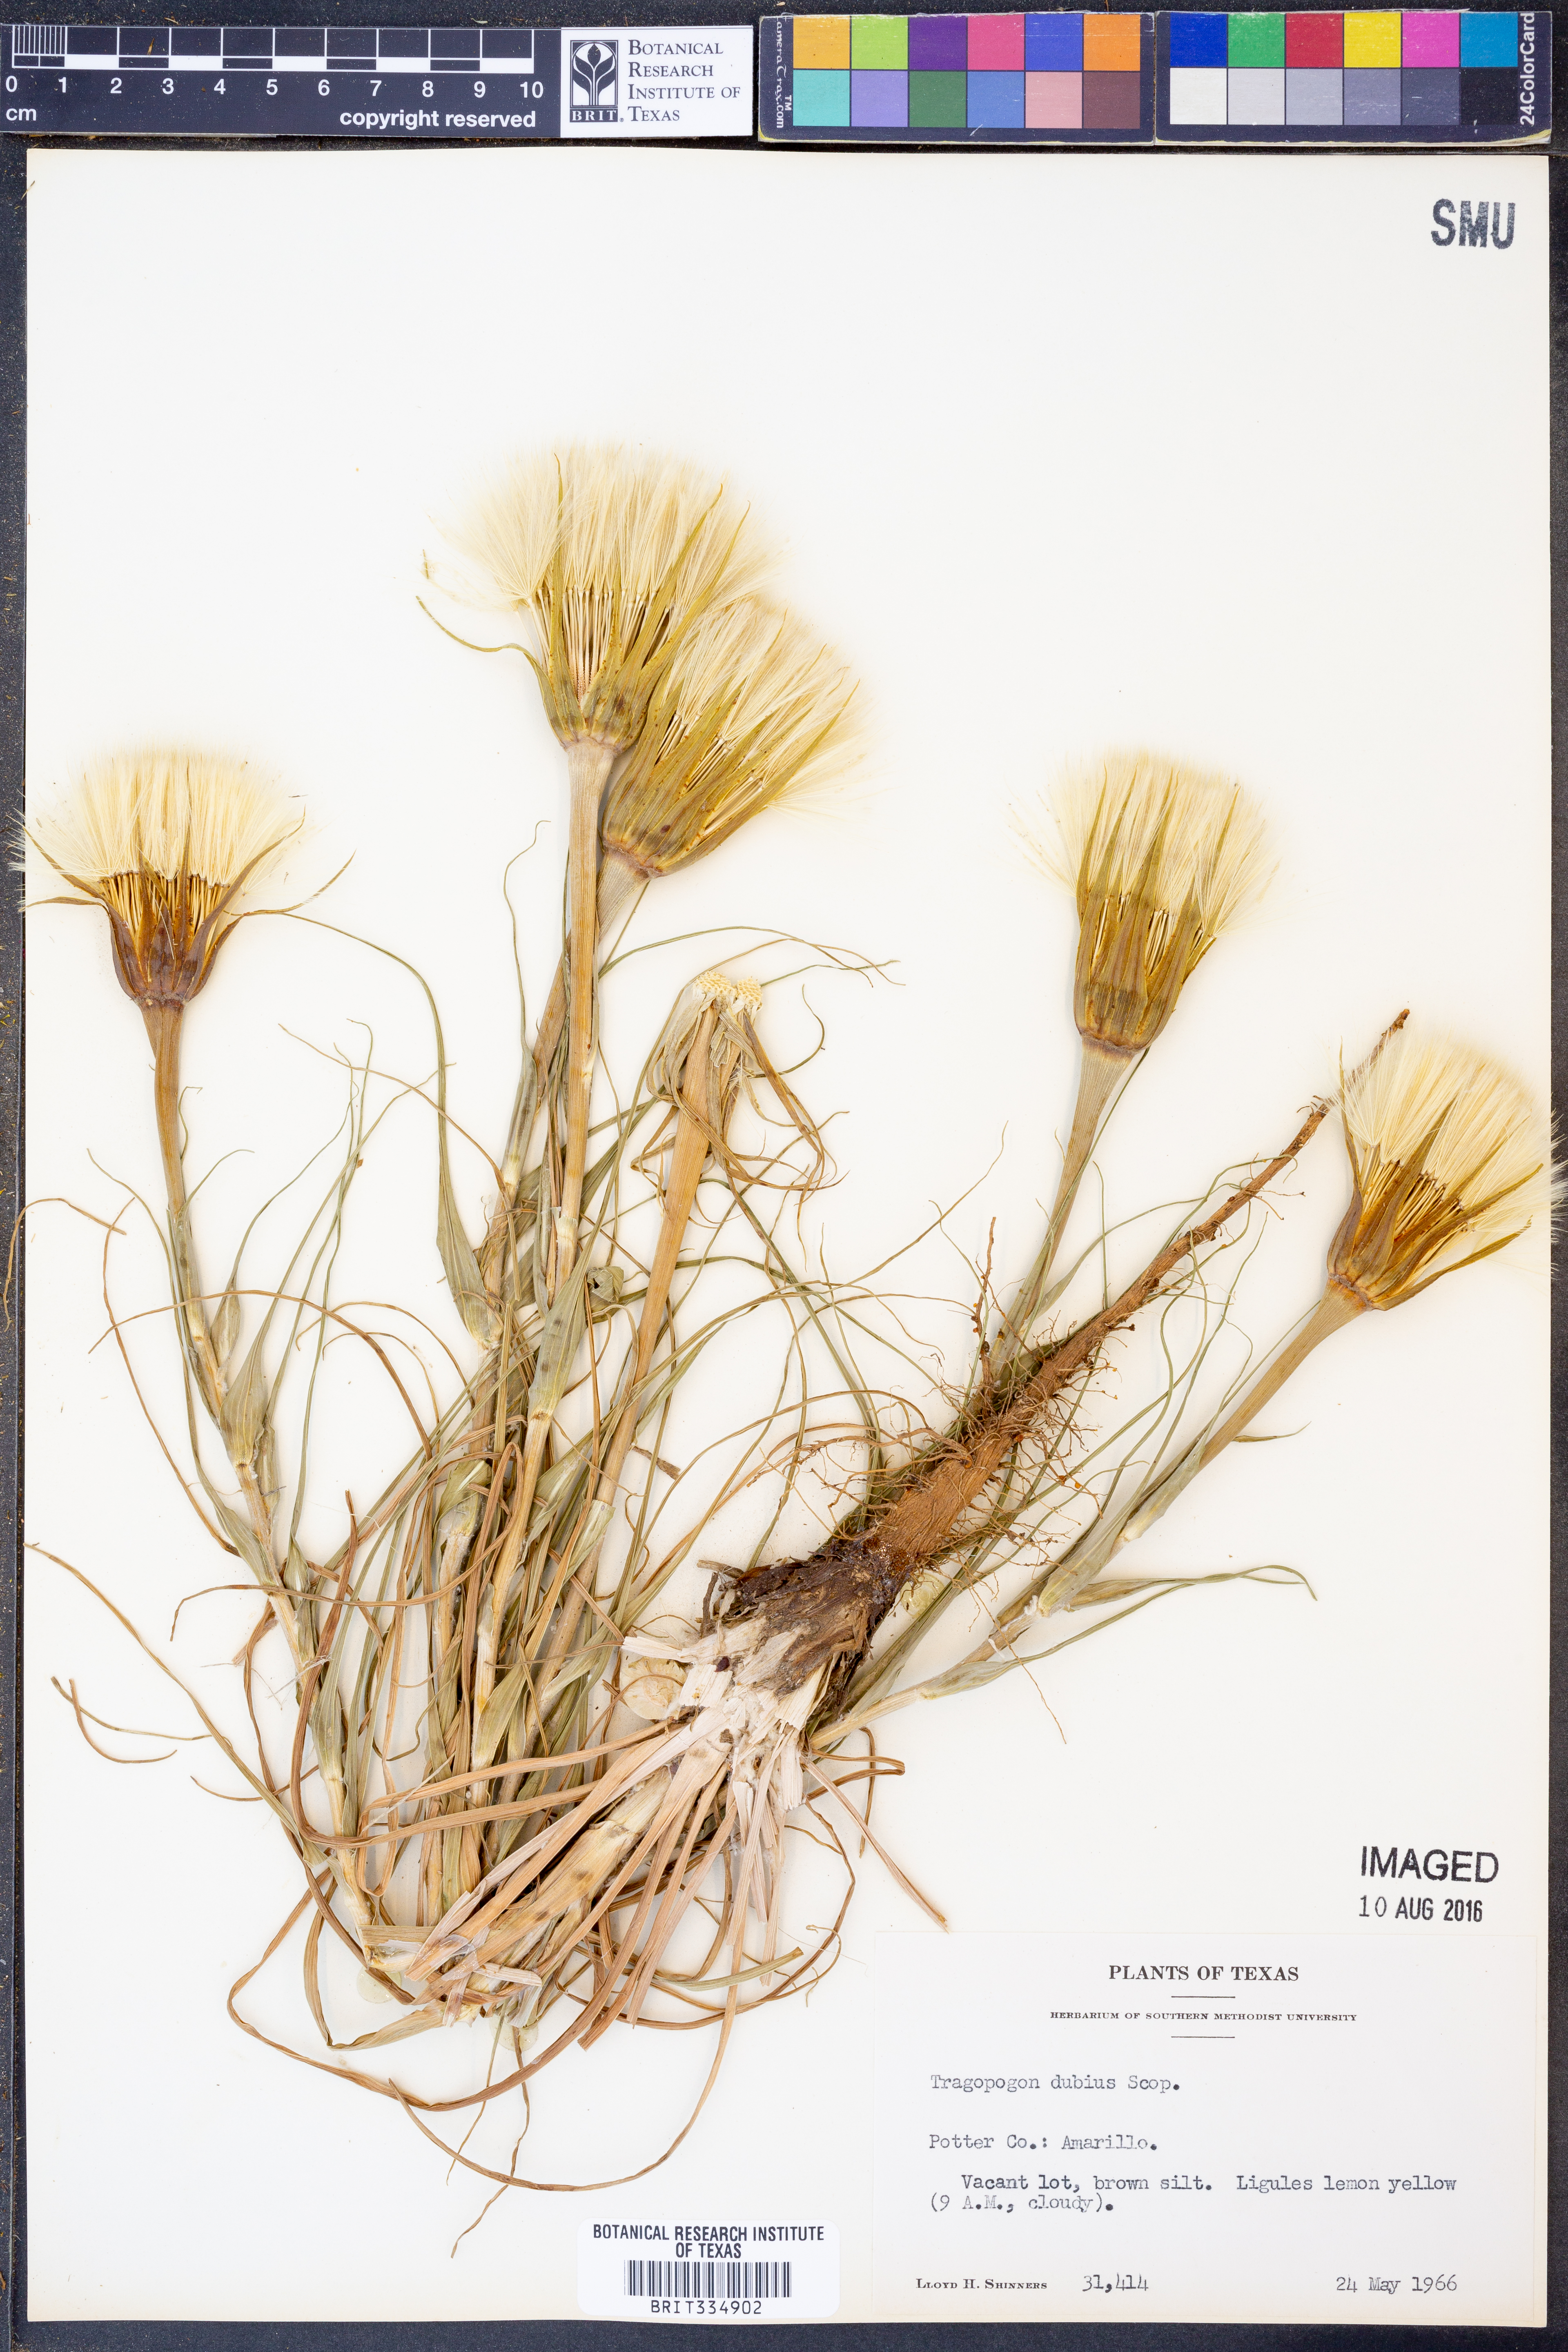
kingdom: Plantae
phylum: Tracheophyta
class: Magnoliopsida
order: Asterales
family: Asteraceae
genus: Tragopogon
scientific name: Tragopogon dubius
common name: Yellow salsify
